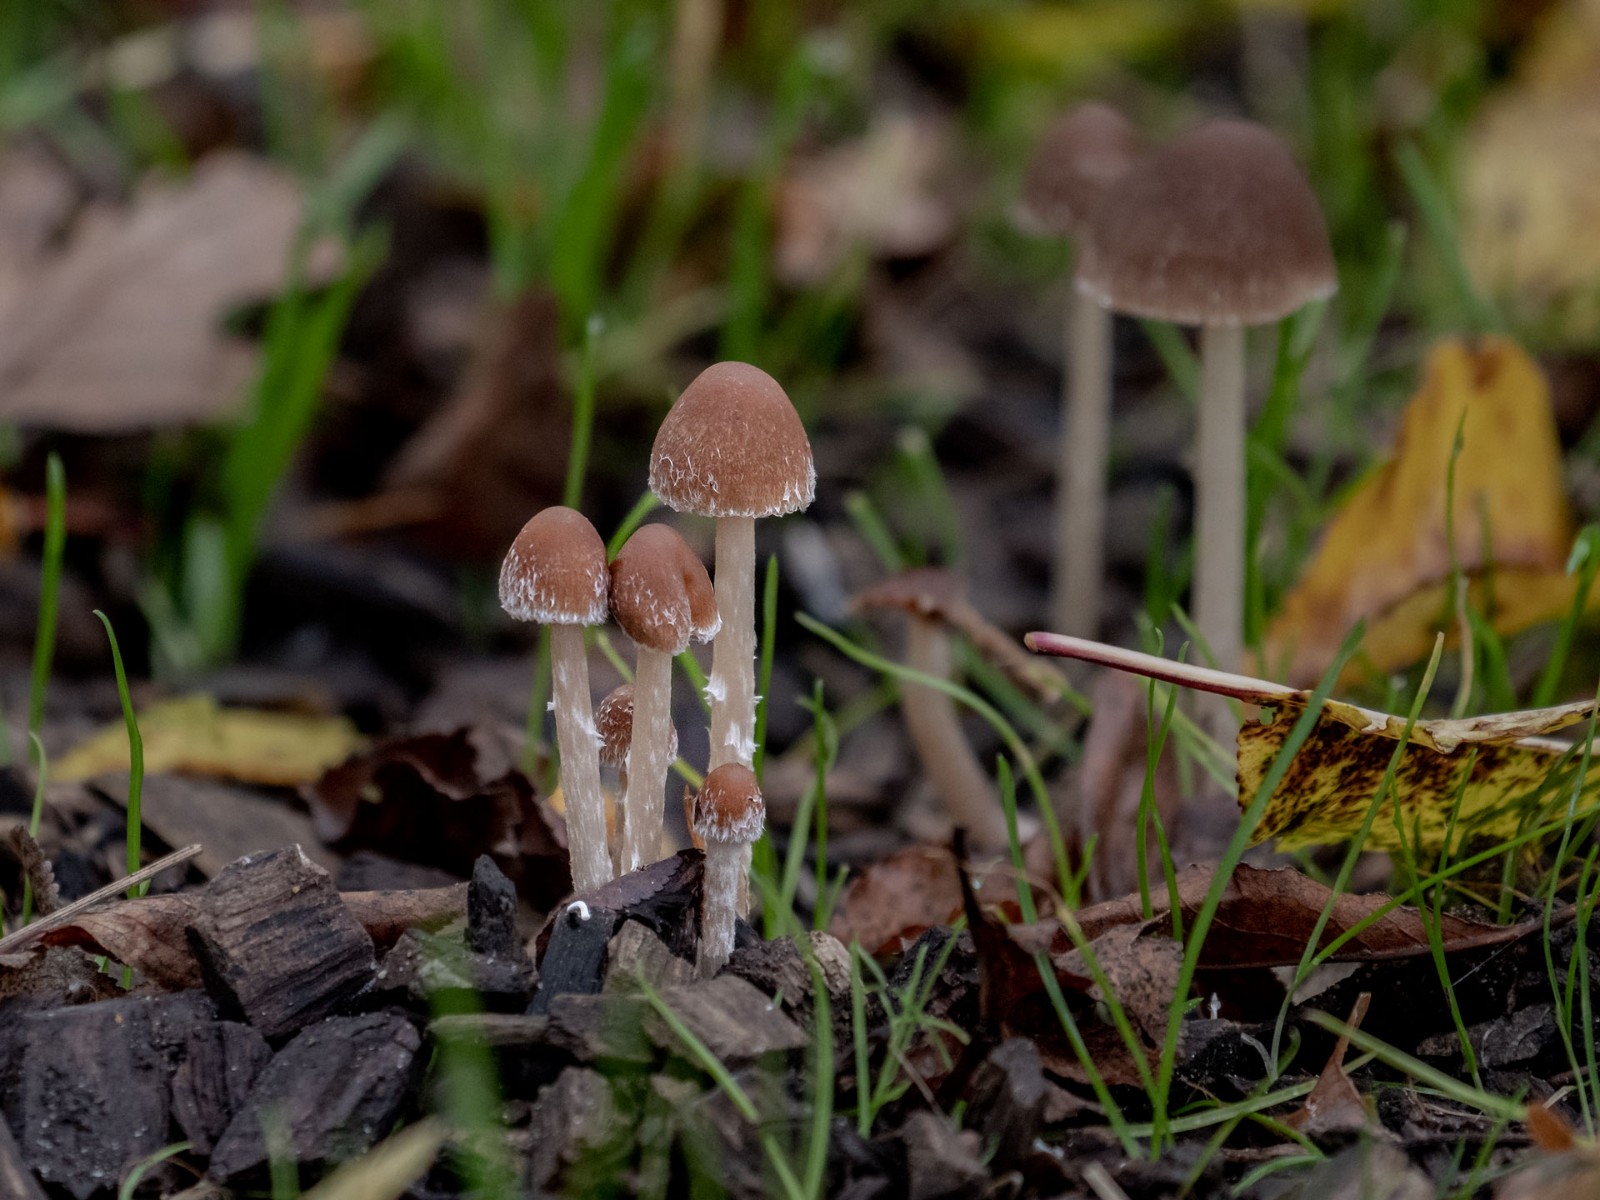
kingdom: Fungi
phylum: Basidiomycota
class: Agaricomycetes
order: Agaricales
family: Psathyrellaceae
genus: Psathyrella
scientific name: Psathyrella
